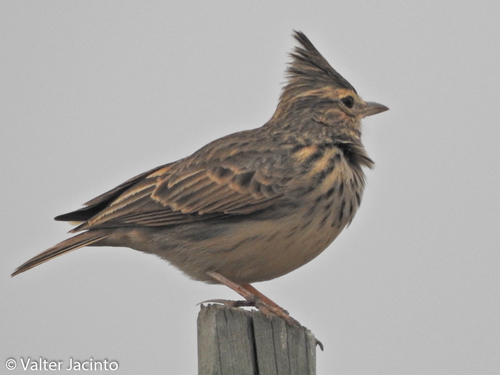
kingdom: Animalia
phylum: Chordata
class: Aves
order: Passeriformes
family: Alaudidae
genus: Galerida
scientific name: Galerida theklae
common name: Thekla lark
